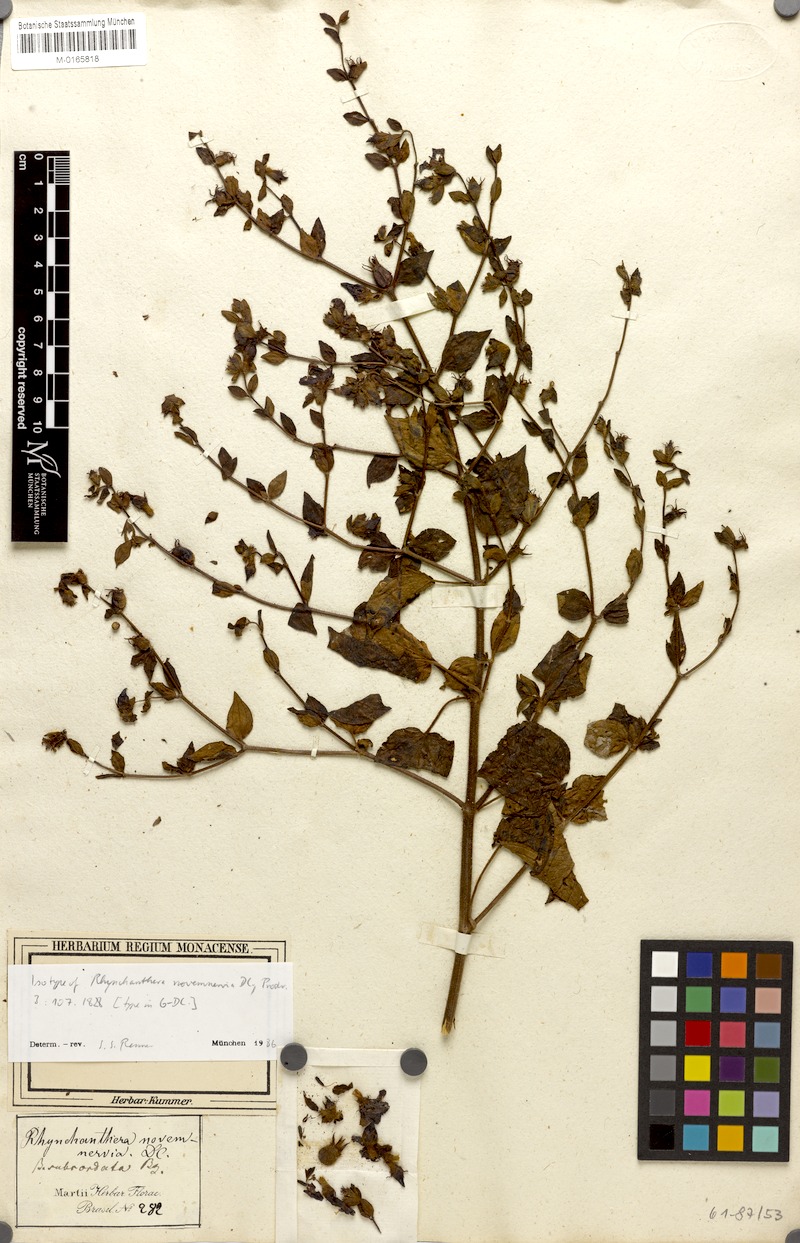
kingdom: Plantae
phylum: Tracheophyta
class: Magnoliopsida
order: Myrtales
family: Melastomataceae
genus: Rhynchanthera
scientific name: Rhynchanthera novemnervia
